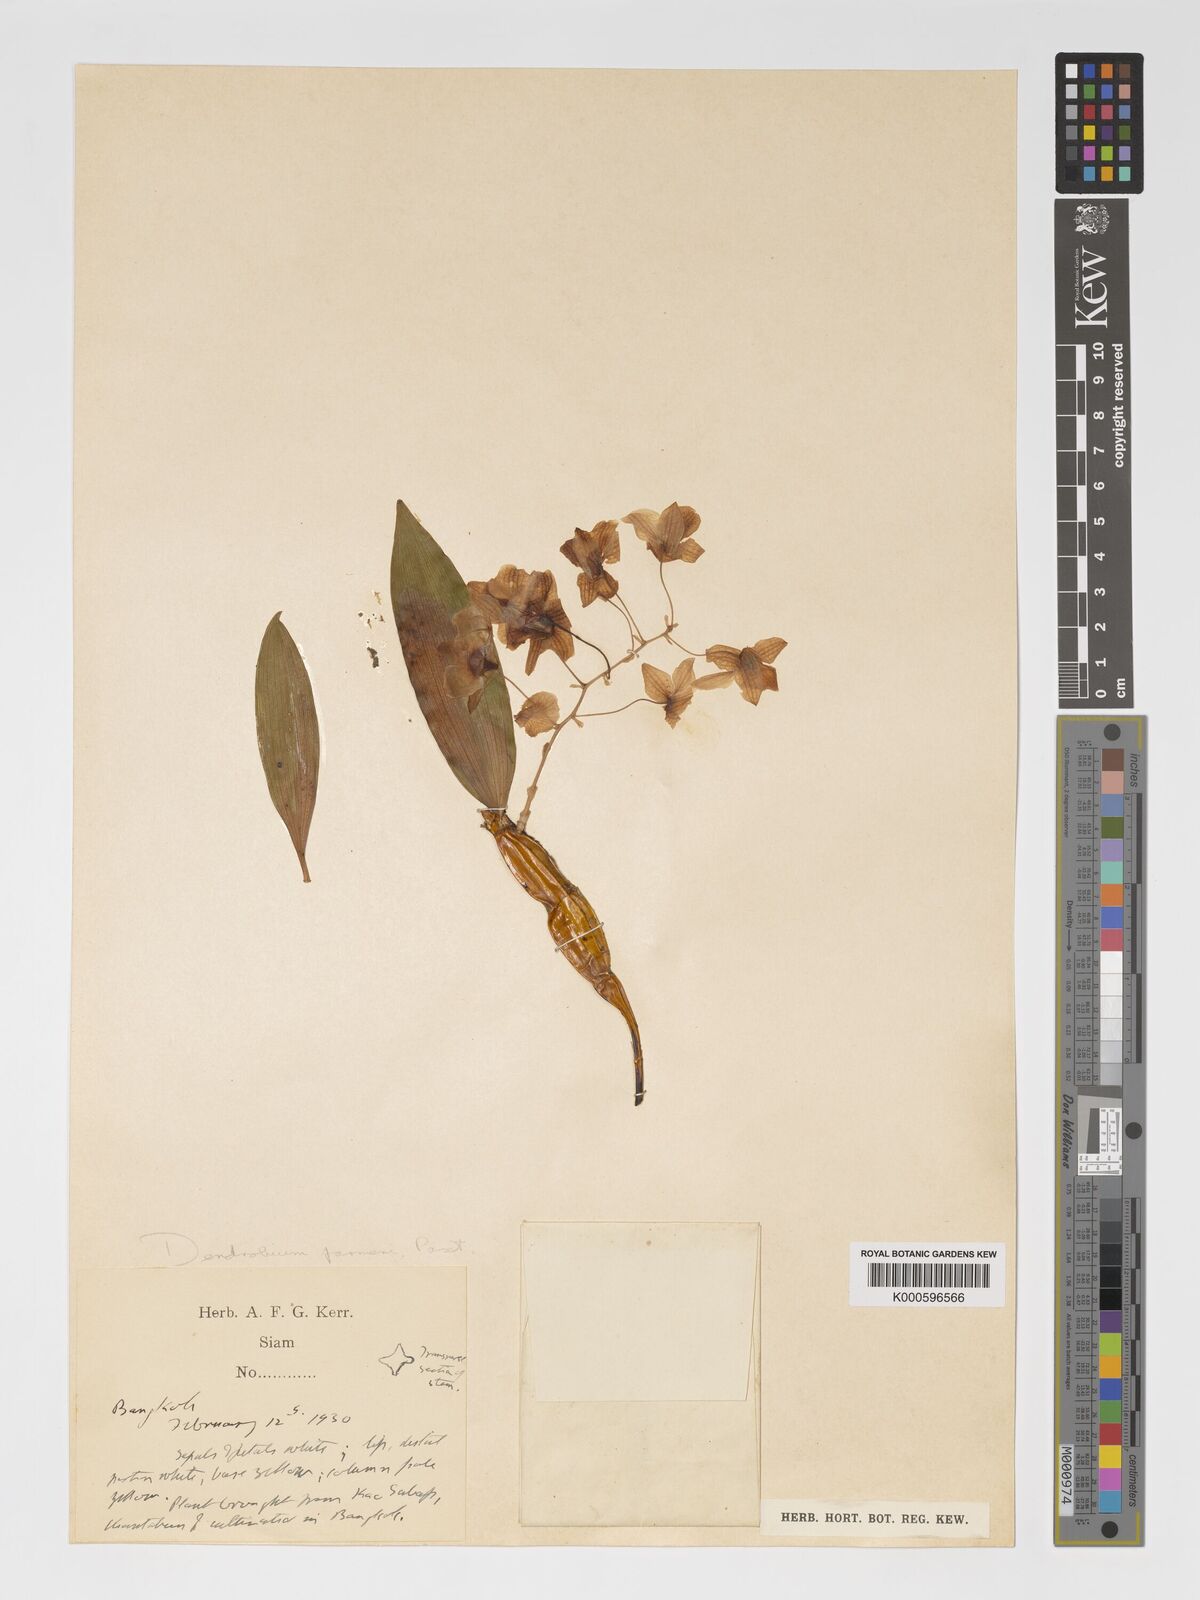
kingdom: Plantae
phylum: Tracheophyta
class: Liliopsida
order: Asparagales
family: Orchidaceae
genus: Dendrobium
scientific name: Dendrobium farmeri
